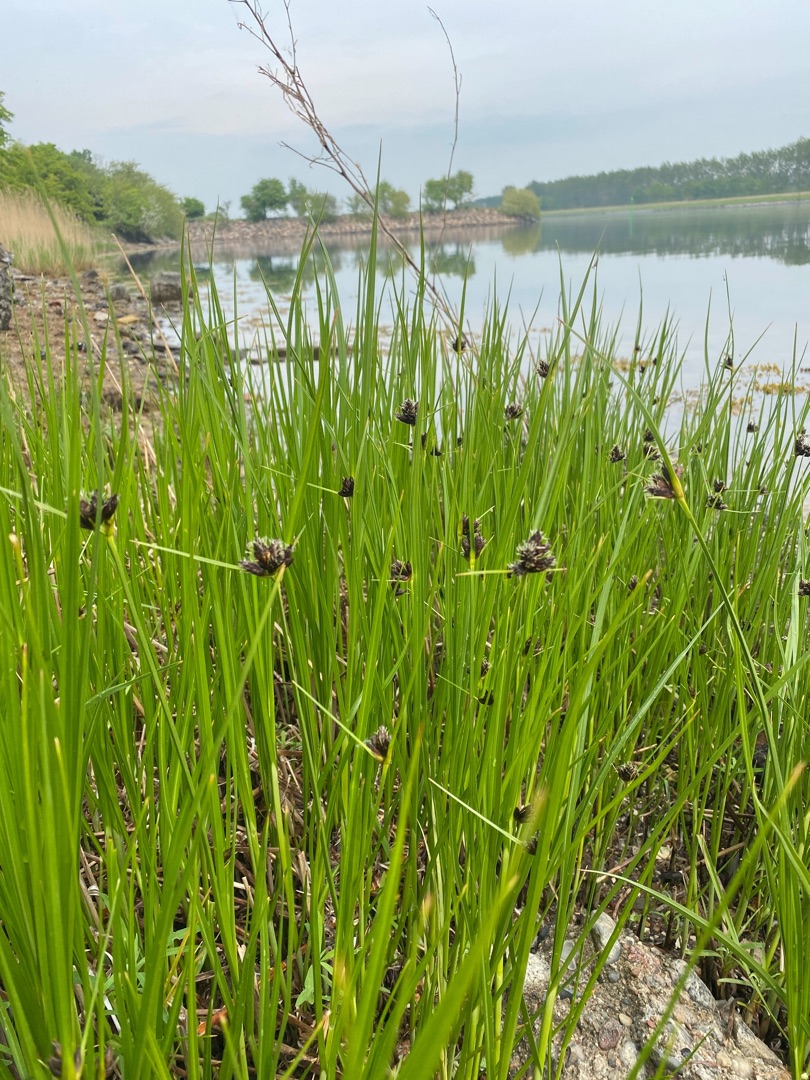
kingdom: Plantae
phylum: Tracheophyta
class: Liliopsida
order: Poales
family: Cyperaceae
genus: Bolboschoenus
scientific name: Bolboschoenus maritimus
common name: Strand-kogleaks
